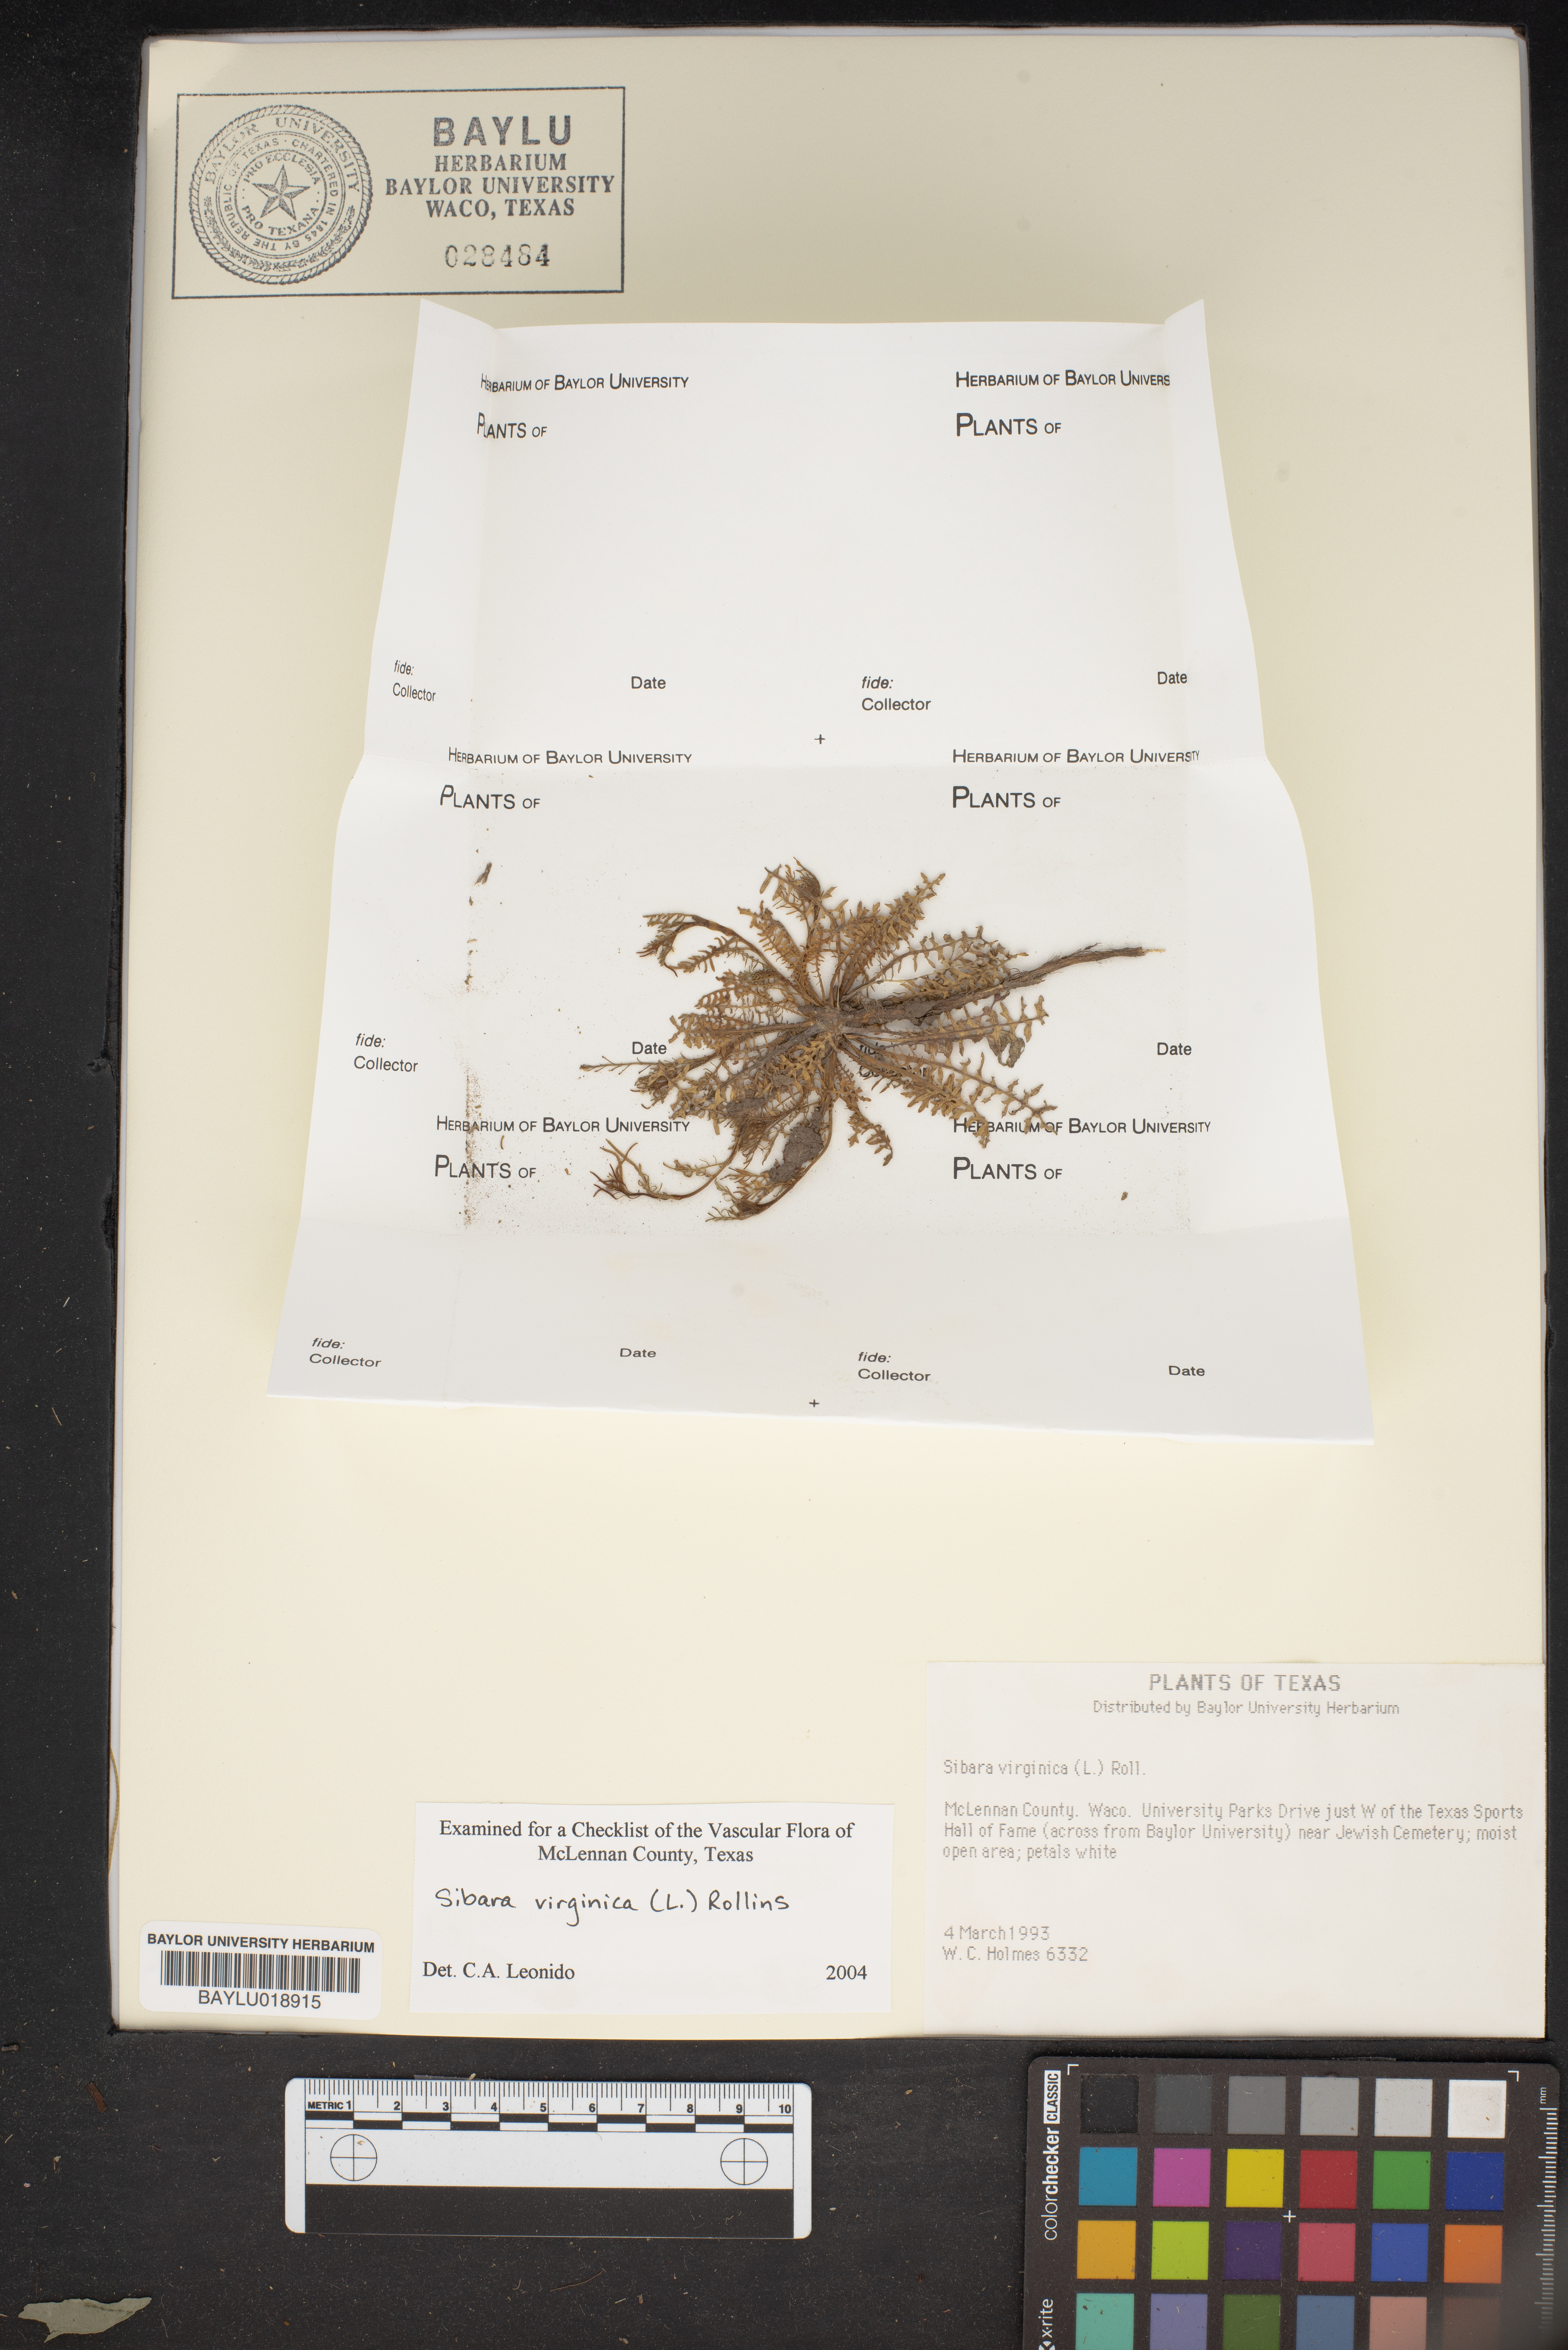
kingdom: Plantae
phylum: Tracheophyta
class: Magnoliopsida
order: Brassicales
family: Brassicaceae
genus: Planodes
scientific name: Planodes virginicum
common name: Virginia cress
